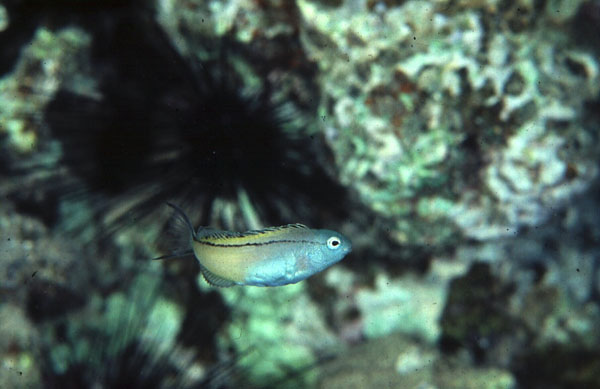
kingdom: Animalia
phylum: Chordata
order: Perciformes
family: Blenniidae
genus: Meiacanthus
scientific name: Meiacanthus nigrolineatus
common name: Blackline fangblenny
